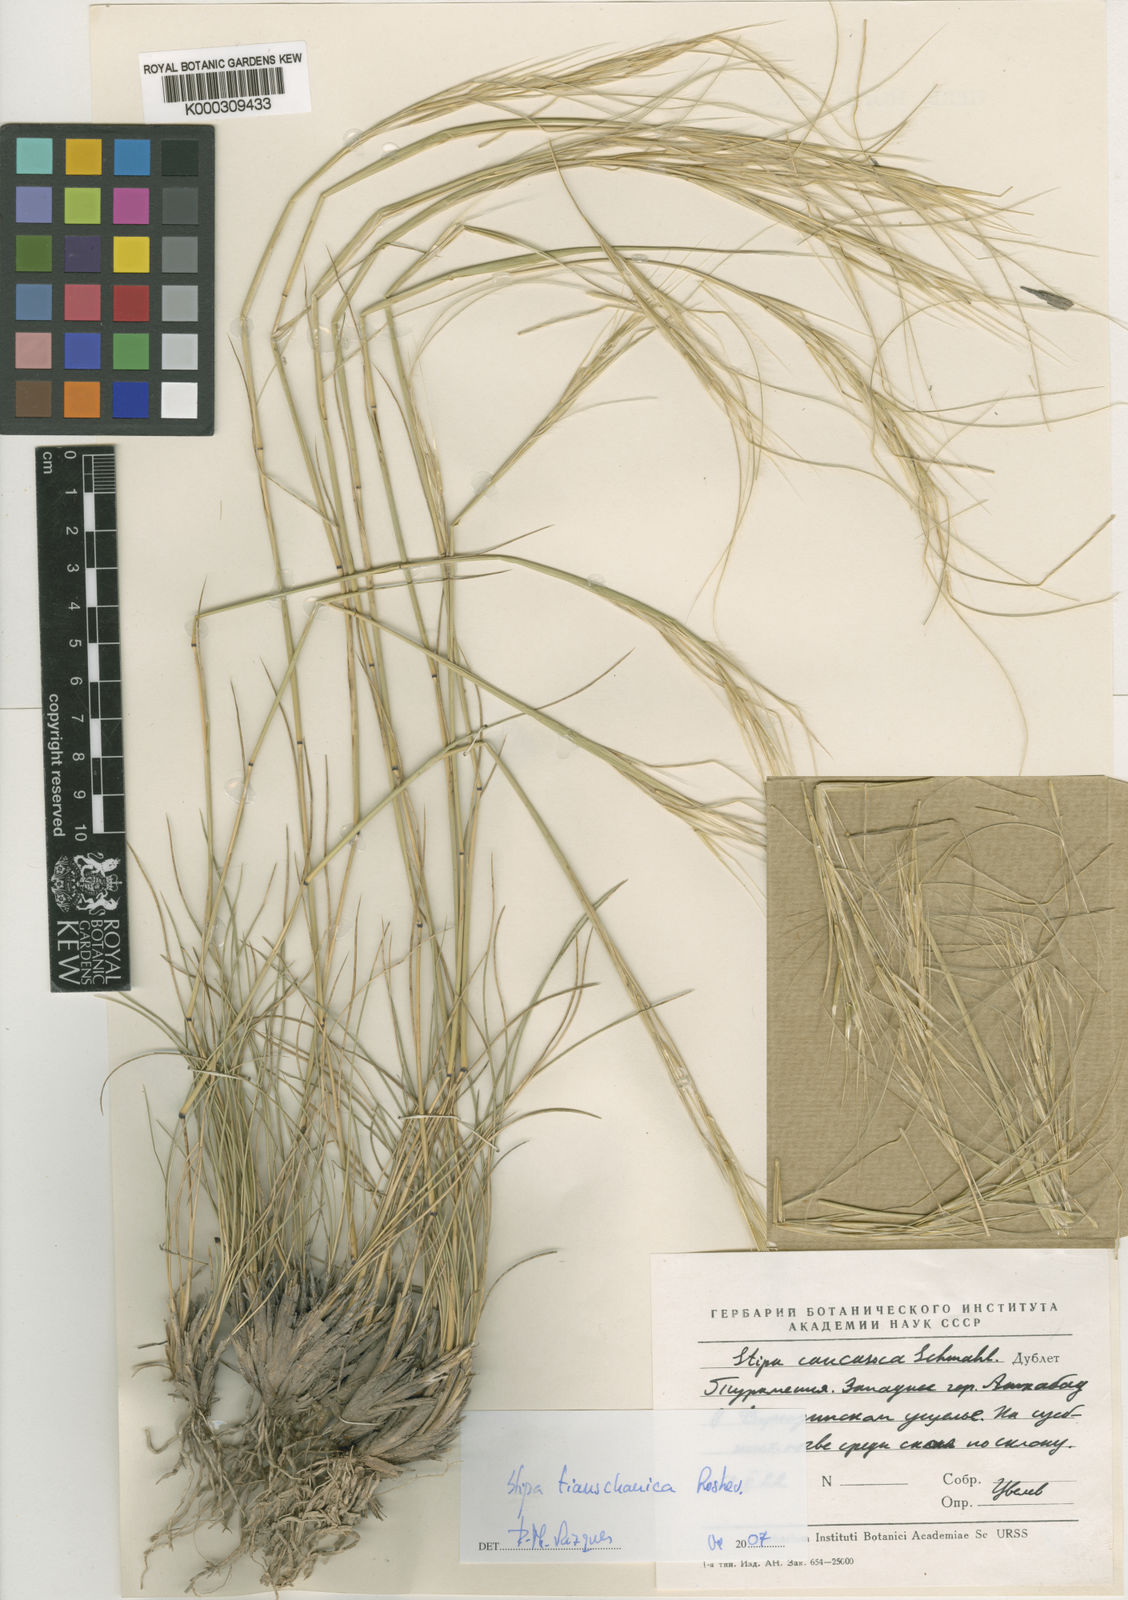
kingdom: Plantae
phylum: Tracheophyta
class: Liliopsida
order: Poales
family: Poaceae
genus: Stipa
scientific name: Stipa caucasica
